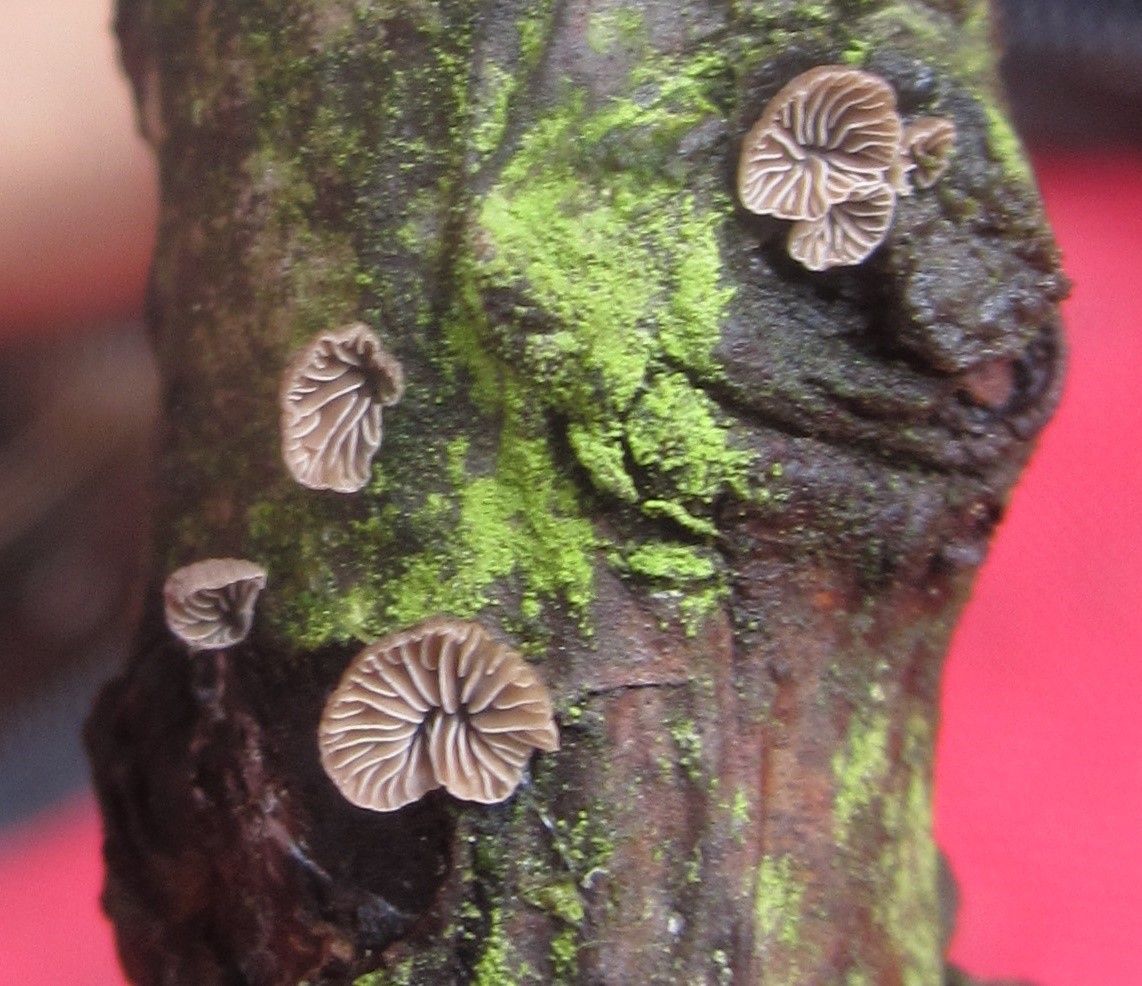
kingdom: Fungi
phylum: Basidiomycota
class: Agaricomycetes
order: Agaricales
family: Crepidotaceae
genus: Crepidotus
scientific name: Crepidotus variabilis
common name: forskelligformet muslingesvamp
